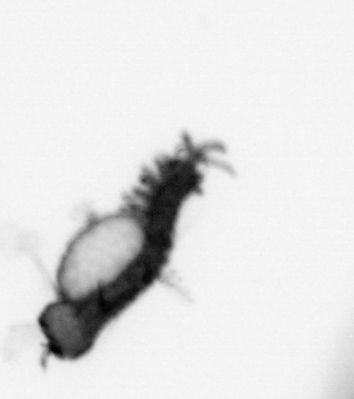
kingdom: Animalia
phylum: Annelida
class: Polychaeta
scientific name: Polychaeta
